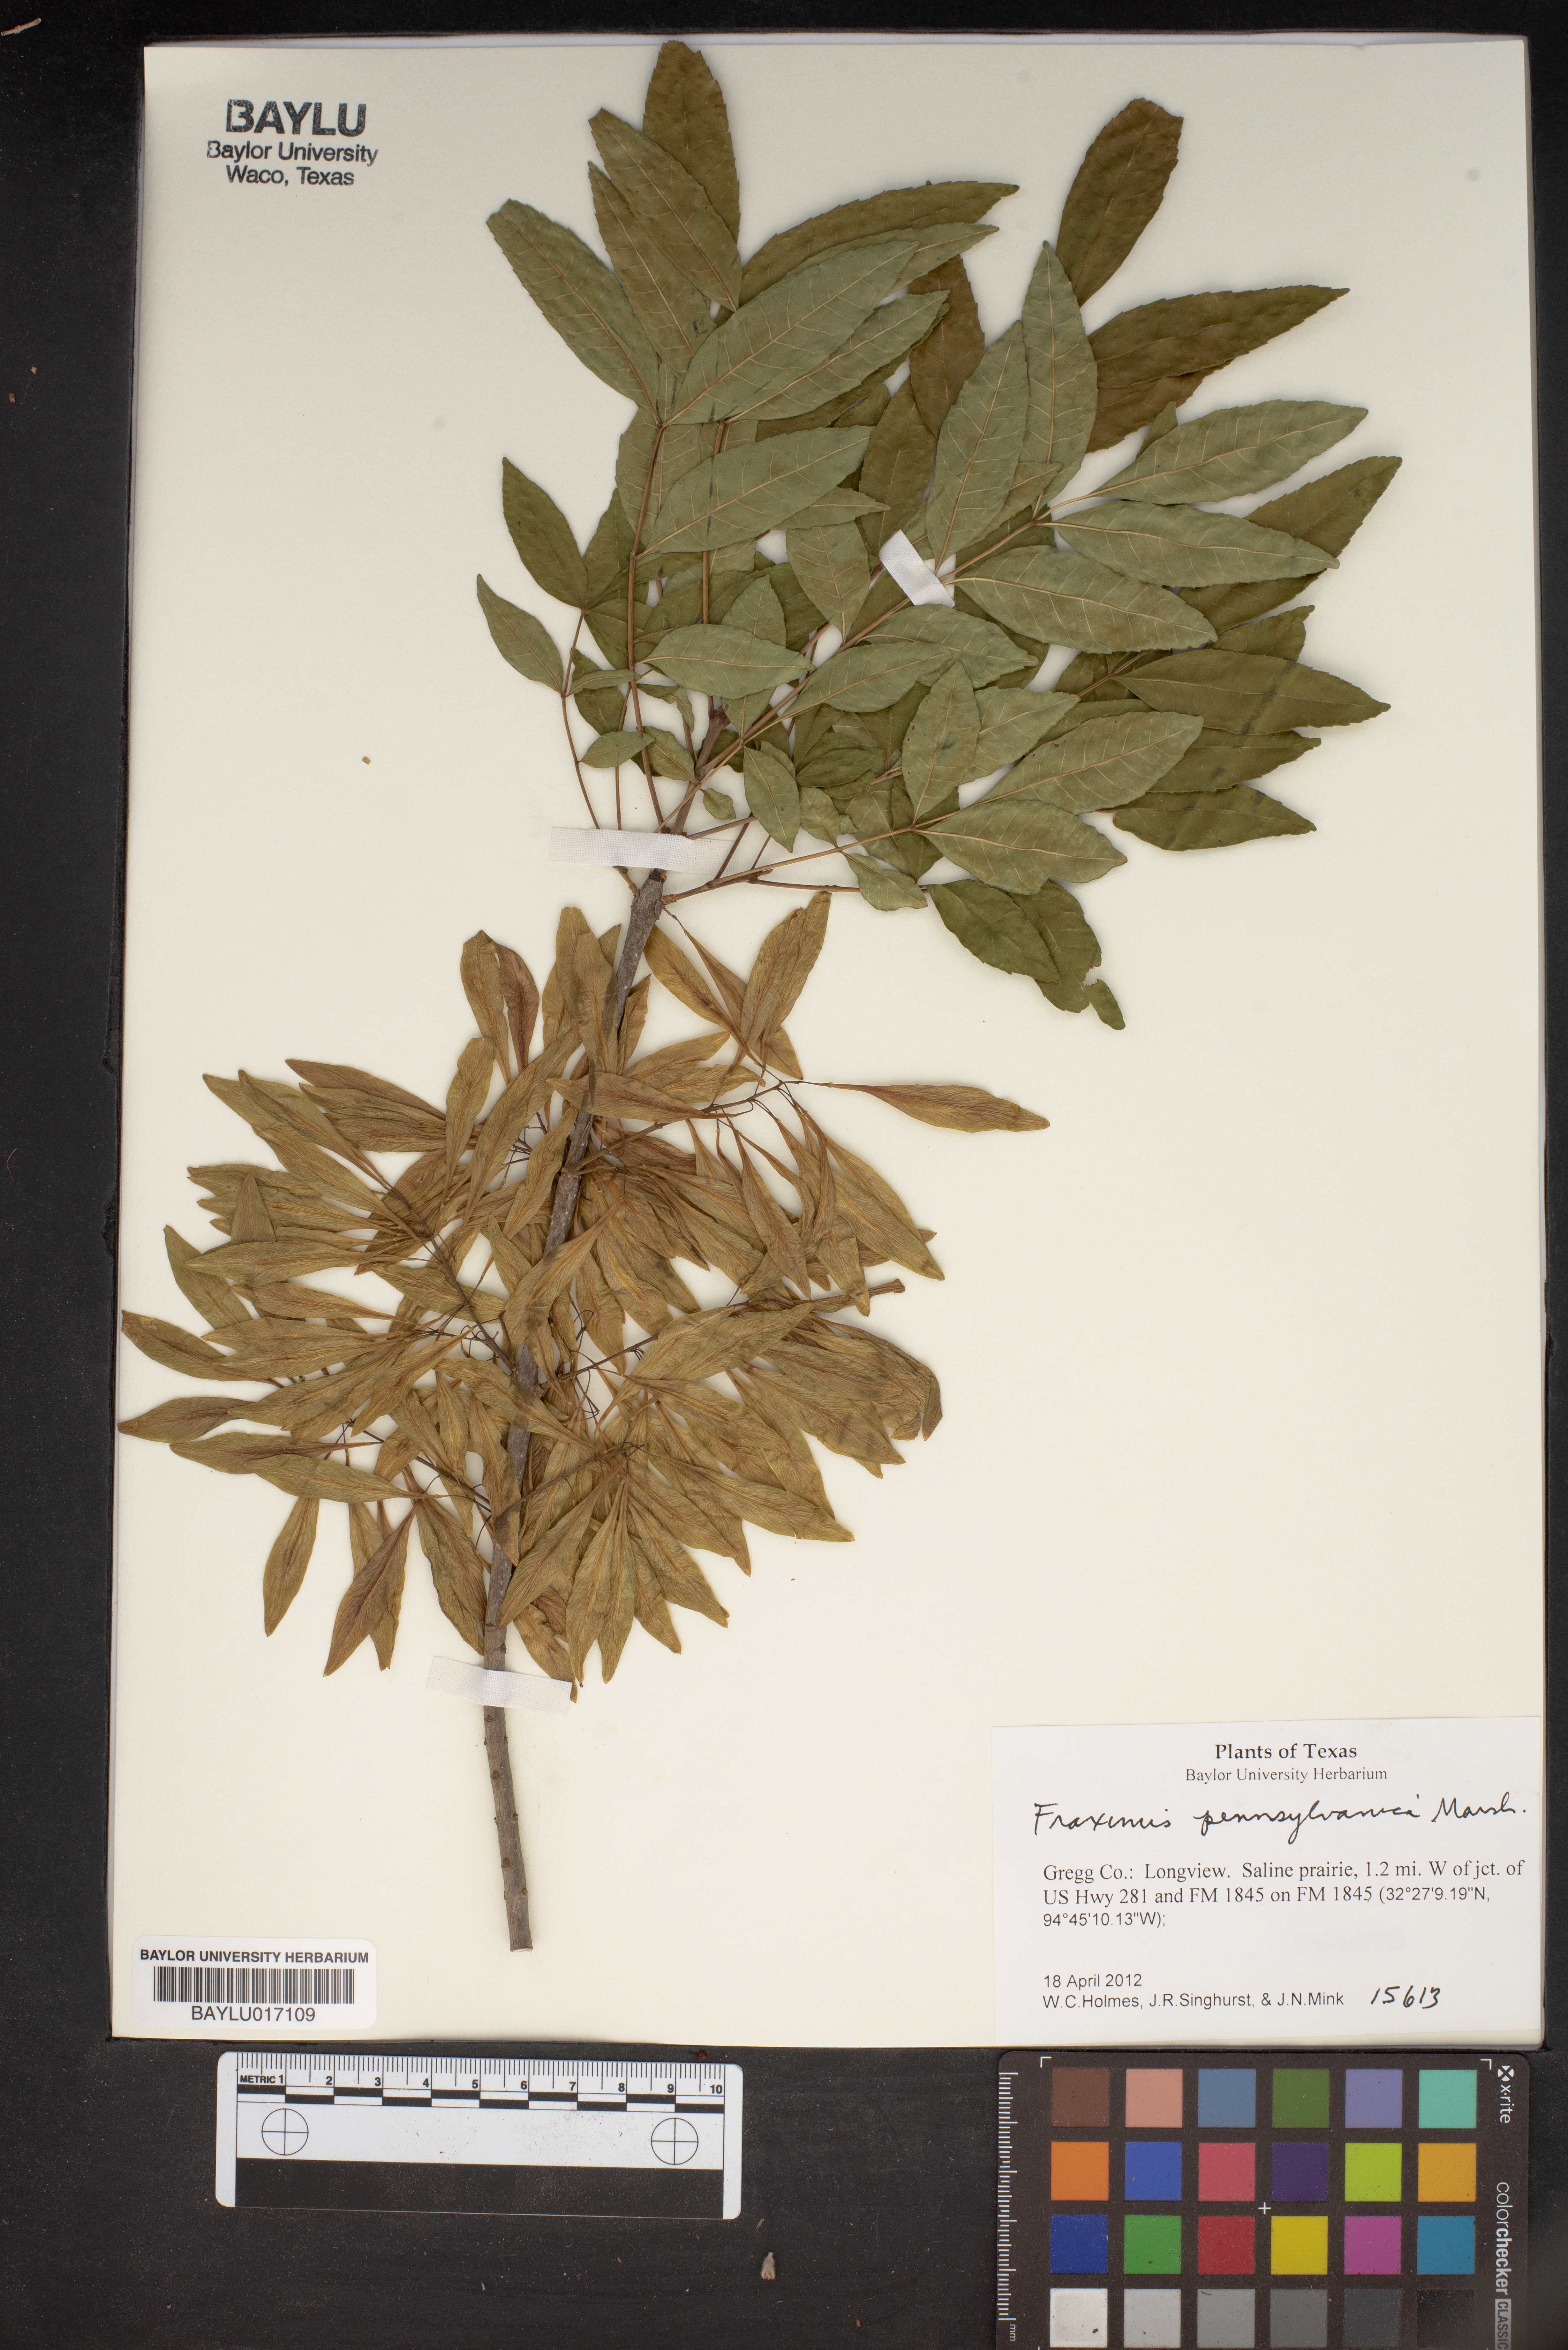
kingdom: Plantae
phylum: Tracheophyta
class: Magnoliopsida
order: Lamiales
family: Oleaceae
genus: Fraxinus
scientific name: Fraxinus pennsylvanica
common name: Green ash
